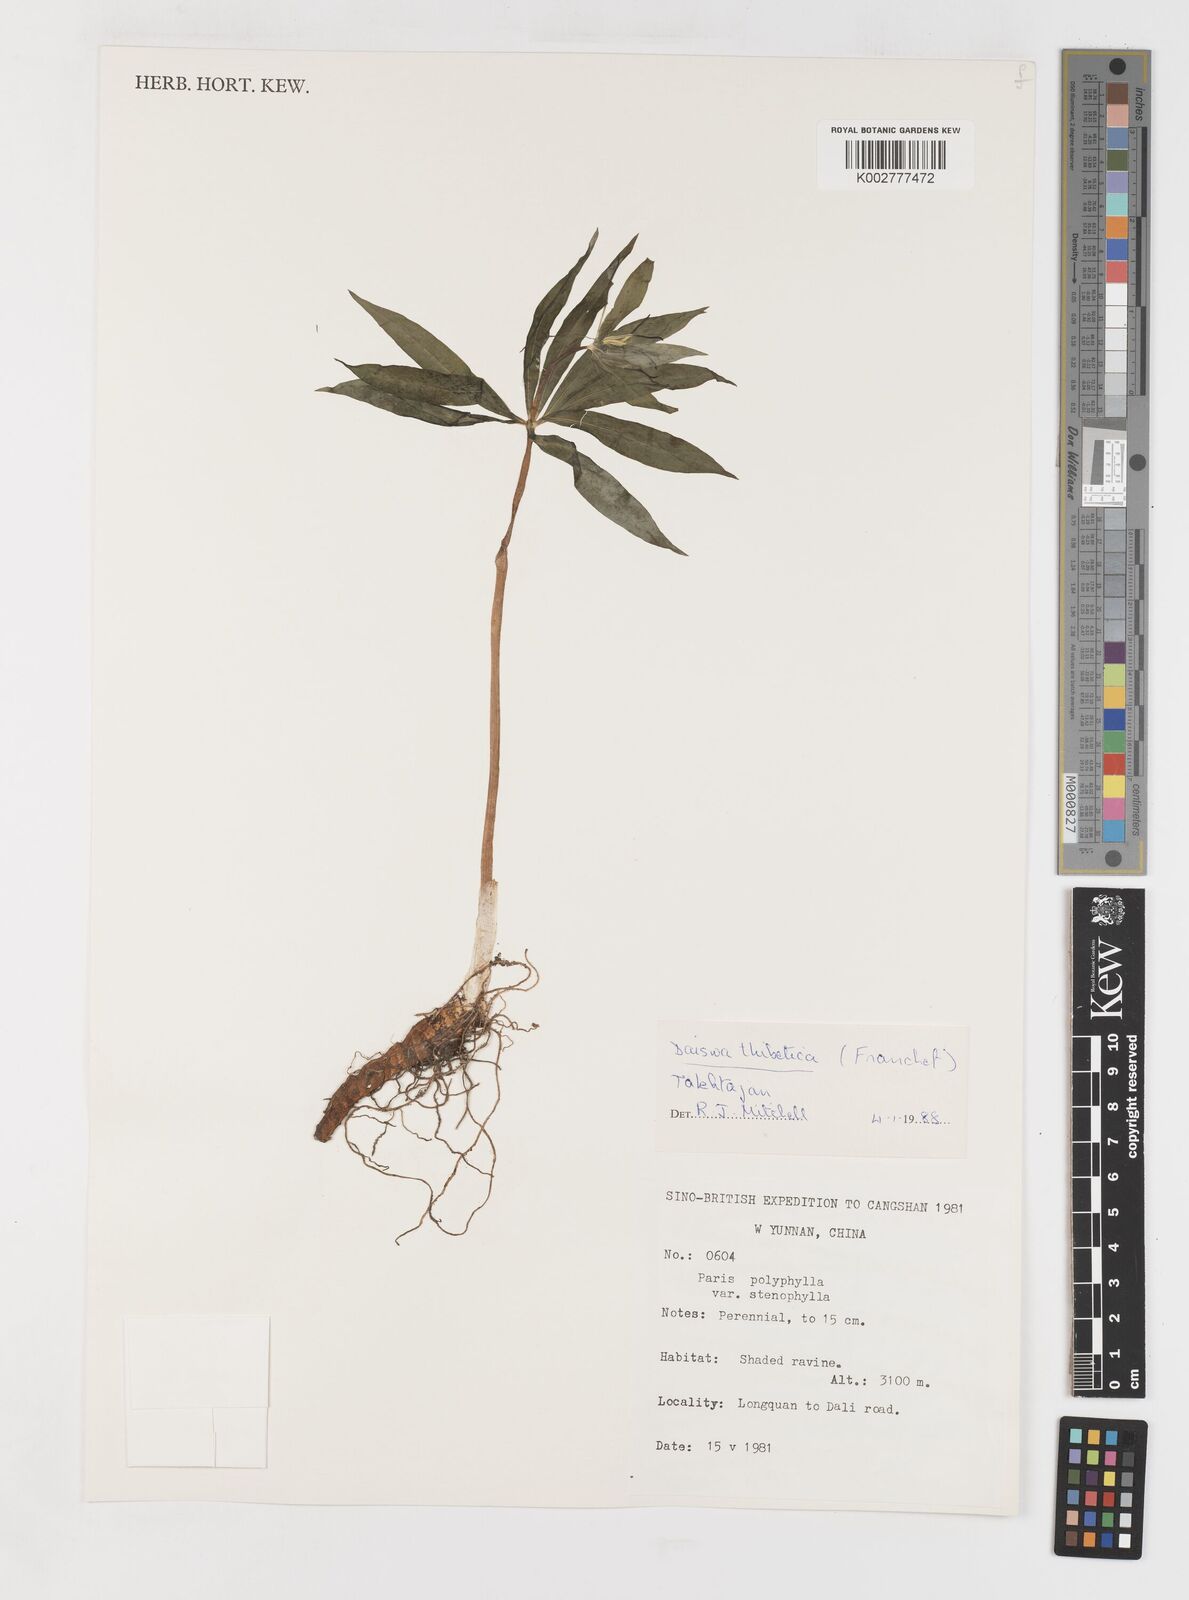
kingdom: Plantae
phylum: Tracheophyta
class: Liliopsida
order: Liliales
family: Melanthiaceae
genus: Paris
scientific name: Paris thibetica
